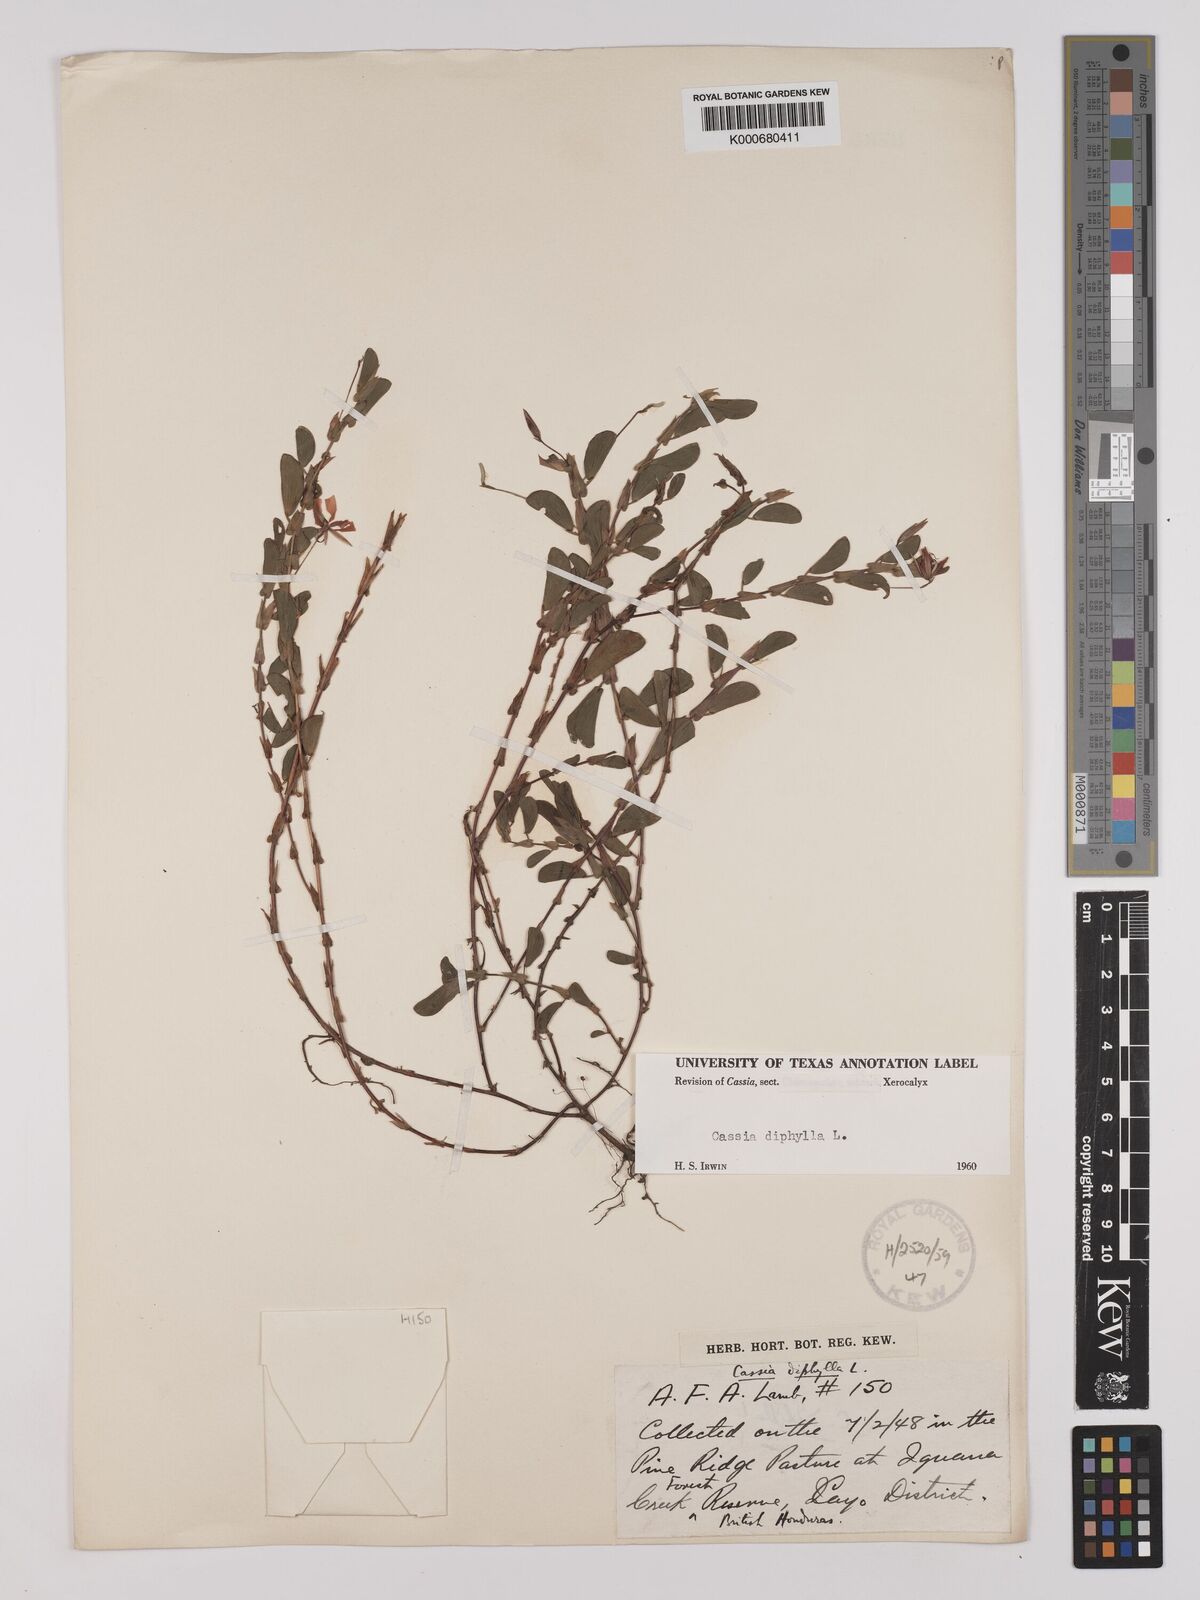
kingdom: Plantae
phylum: Tracheophyta
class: Magnoliopsida
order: Fabales
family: Fabaceae
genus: Chamaecrista
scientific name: Chamaecrista diphylla
